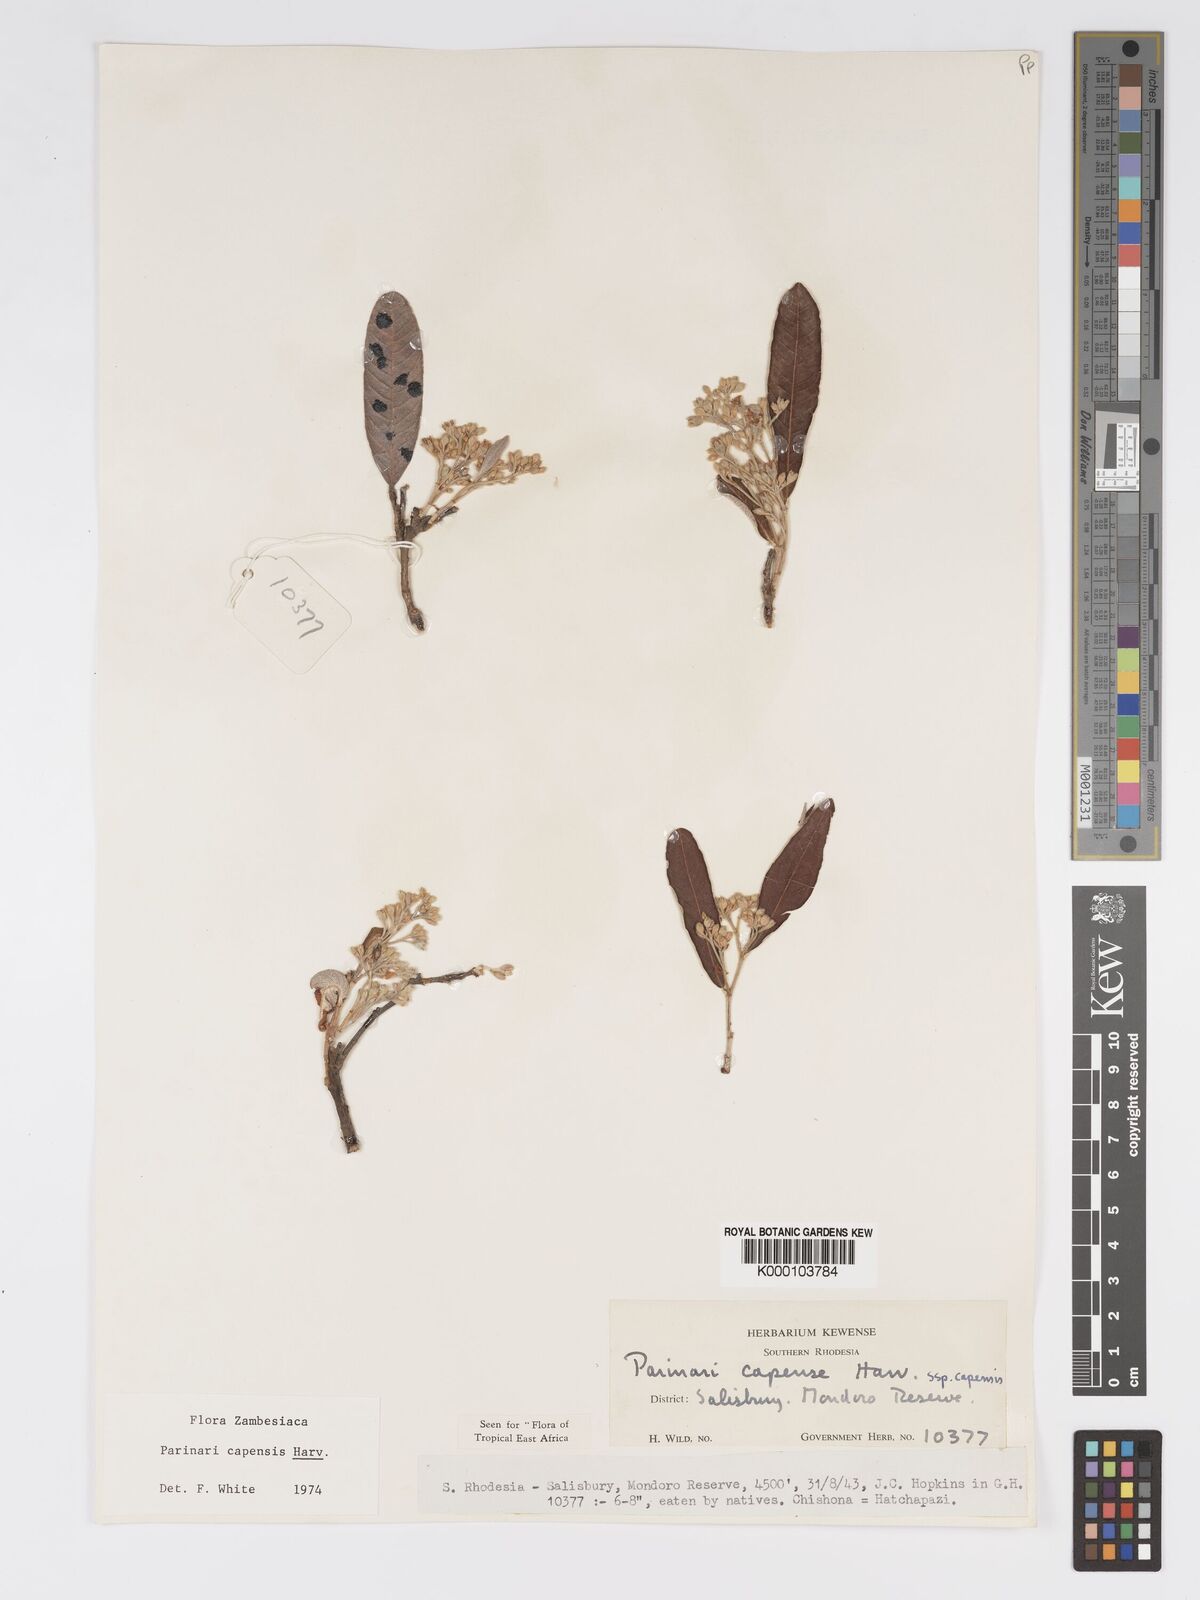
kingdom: Plantae
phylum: Tracheophyta
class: Magnoliopsida
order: Malpighiales
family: Chrysobalanaceae
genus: Parinari
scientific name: Parinari capensis
